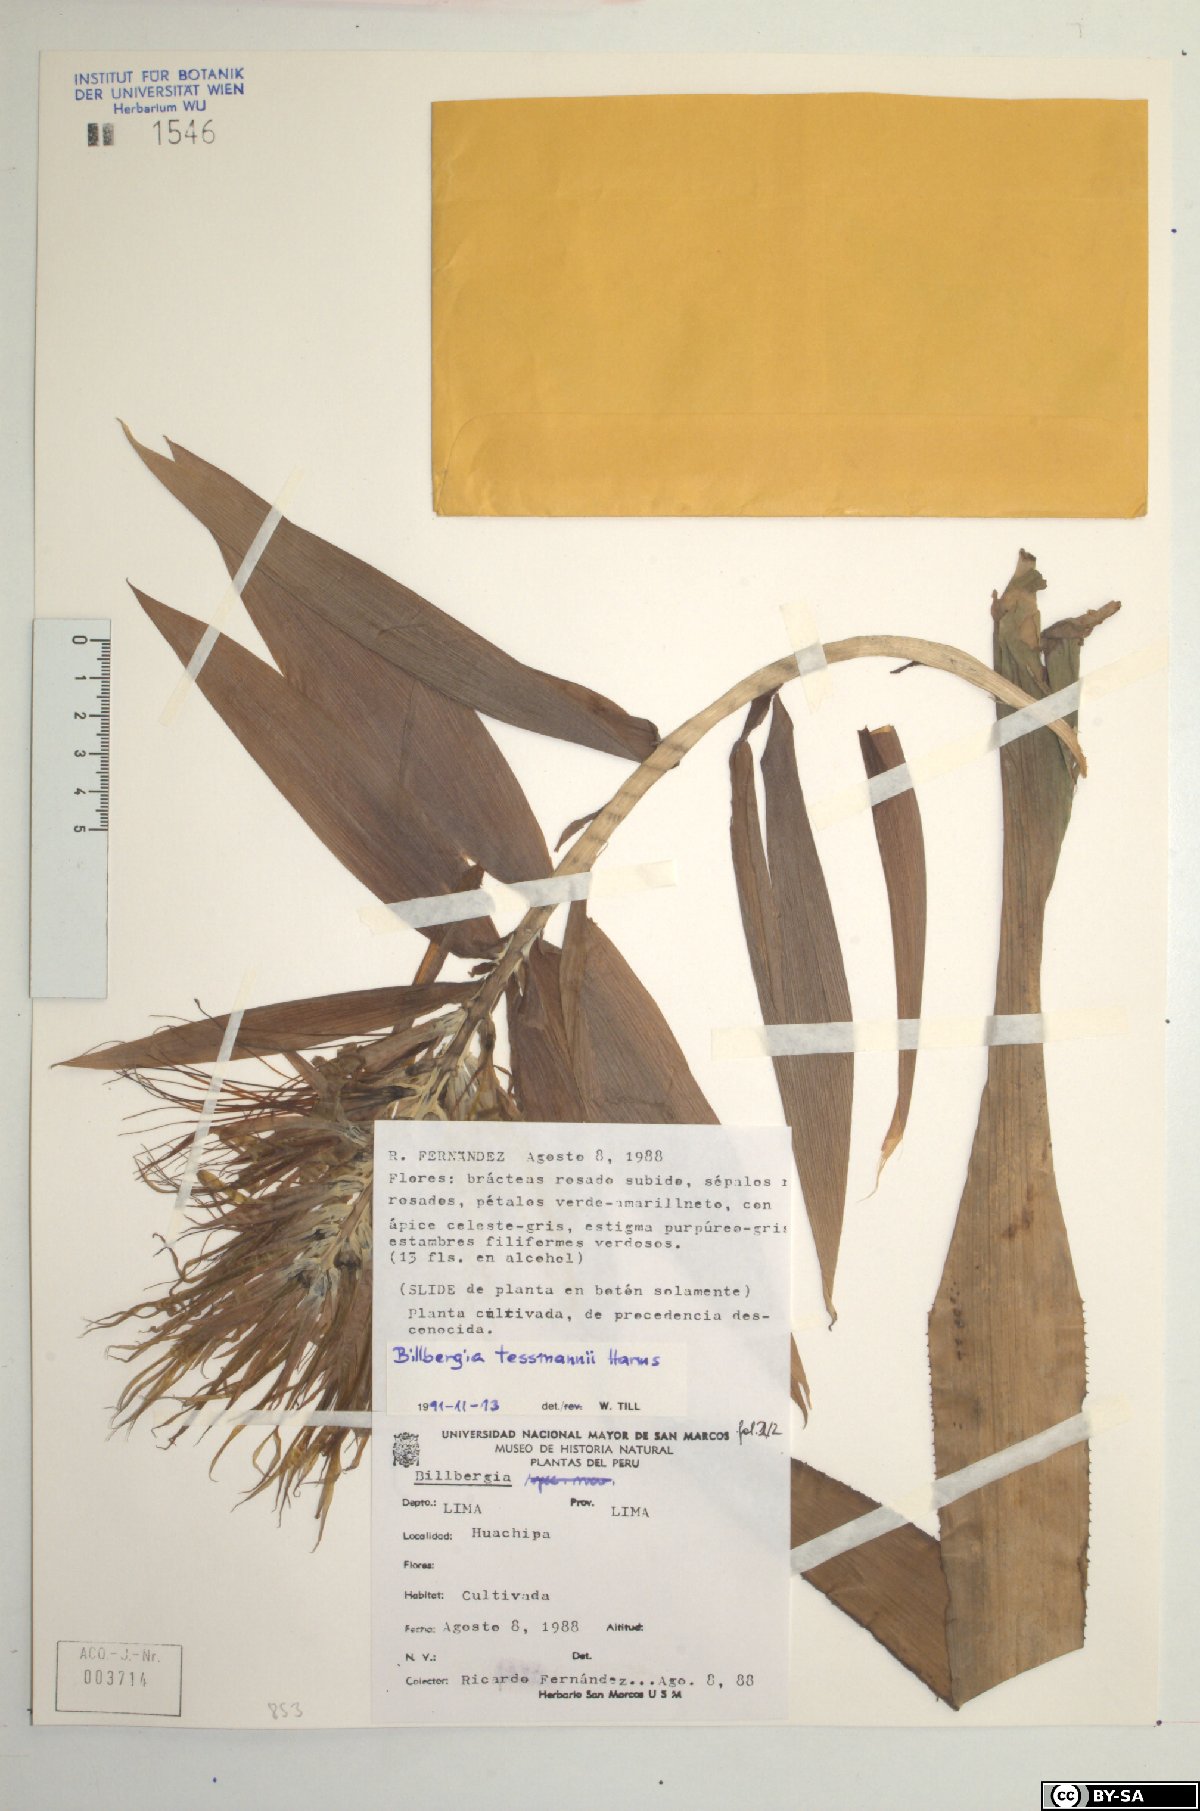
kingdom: Plantae
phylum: Tracheophyta
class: Liliopsida
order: Poales
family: Bromeliaceae
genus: Billbergia
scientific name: Billbergia tessmannii
